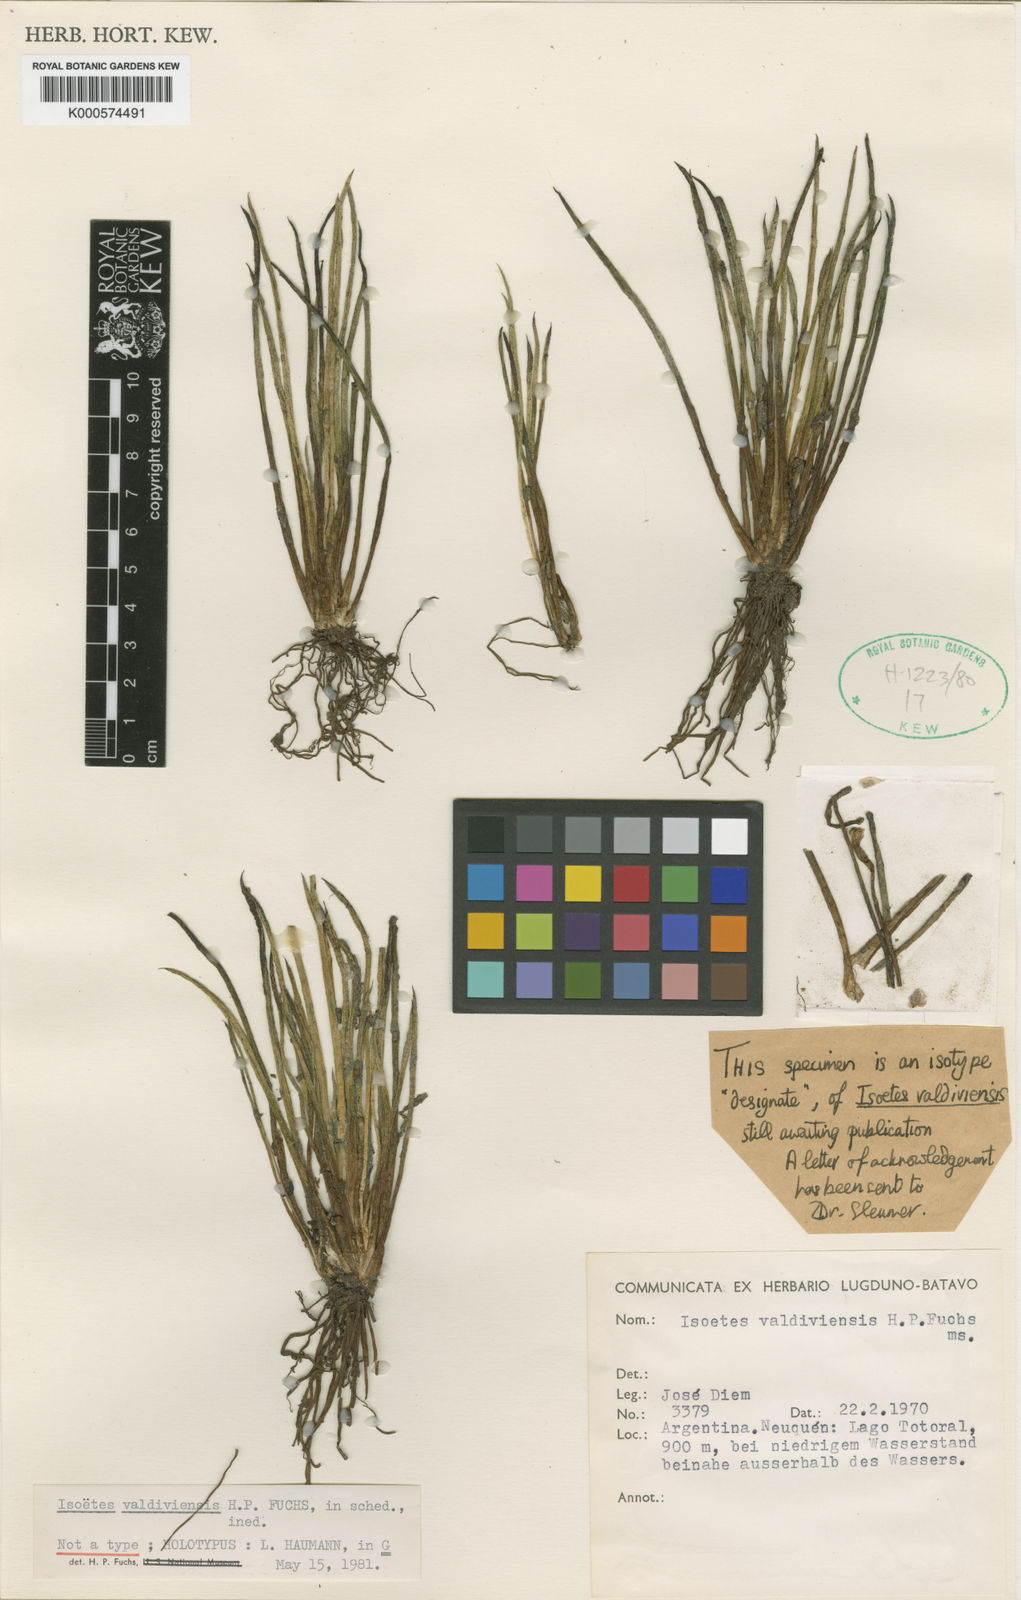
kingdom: Plantae
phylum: Tracheophyta
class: Lycopodiopsida
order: Isoetales
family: Isoetaceae
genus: Isoetes
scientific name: Isoetes
